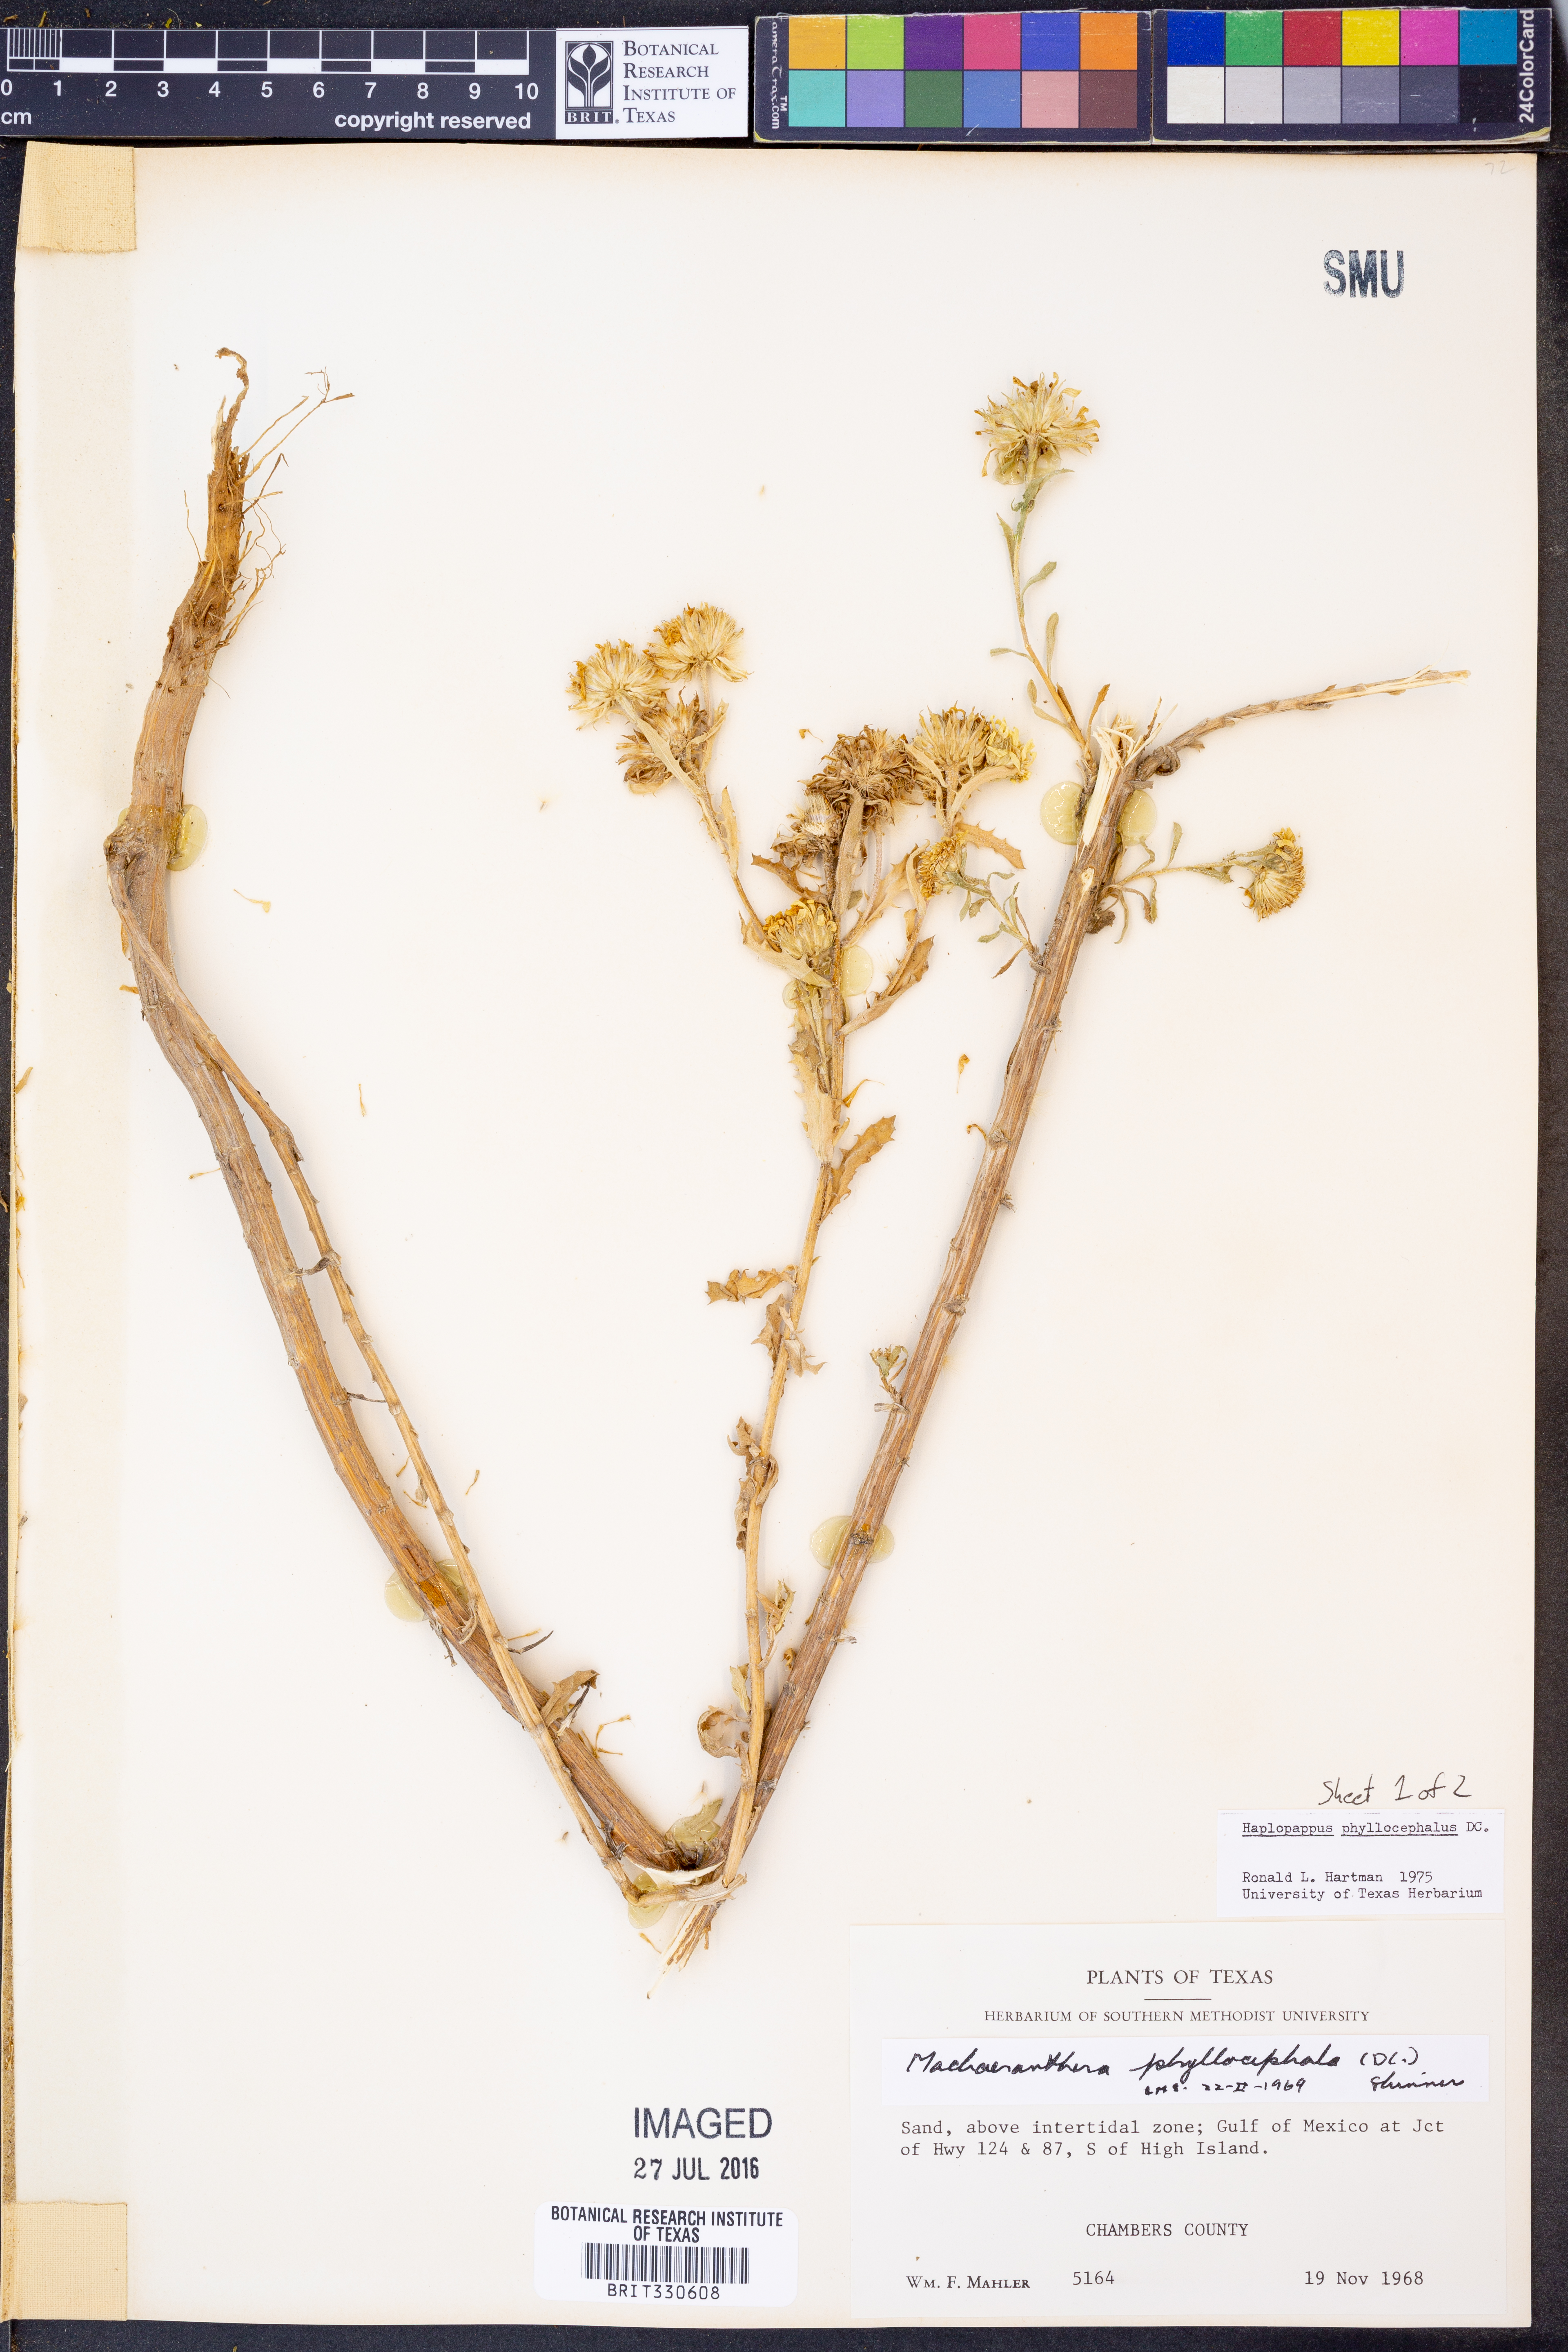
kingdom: Plantae
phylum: Tracheophyta
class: Magnoliopsida
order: Asterales
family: Asteraceae
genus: Rayjacksonia
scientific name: Rayjacksonia phyllocephala
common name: Gulf coast camphor daisy
